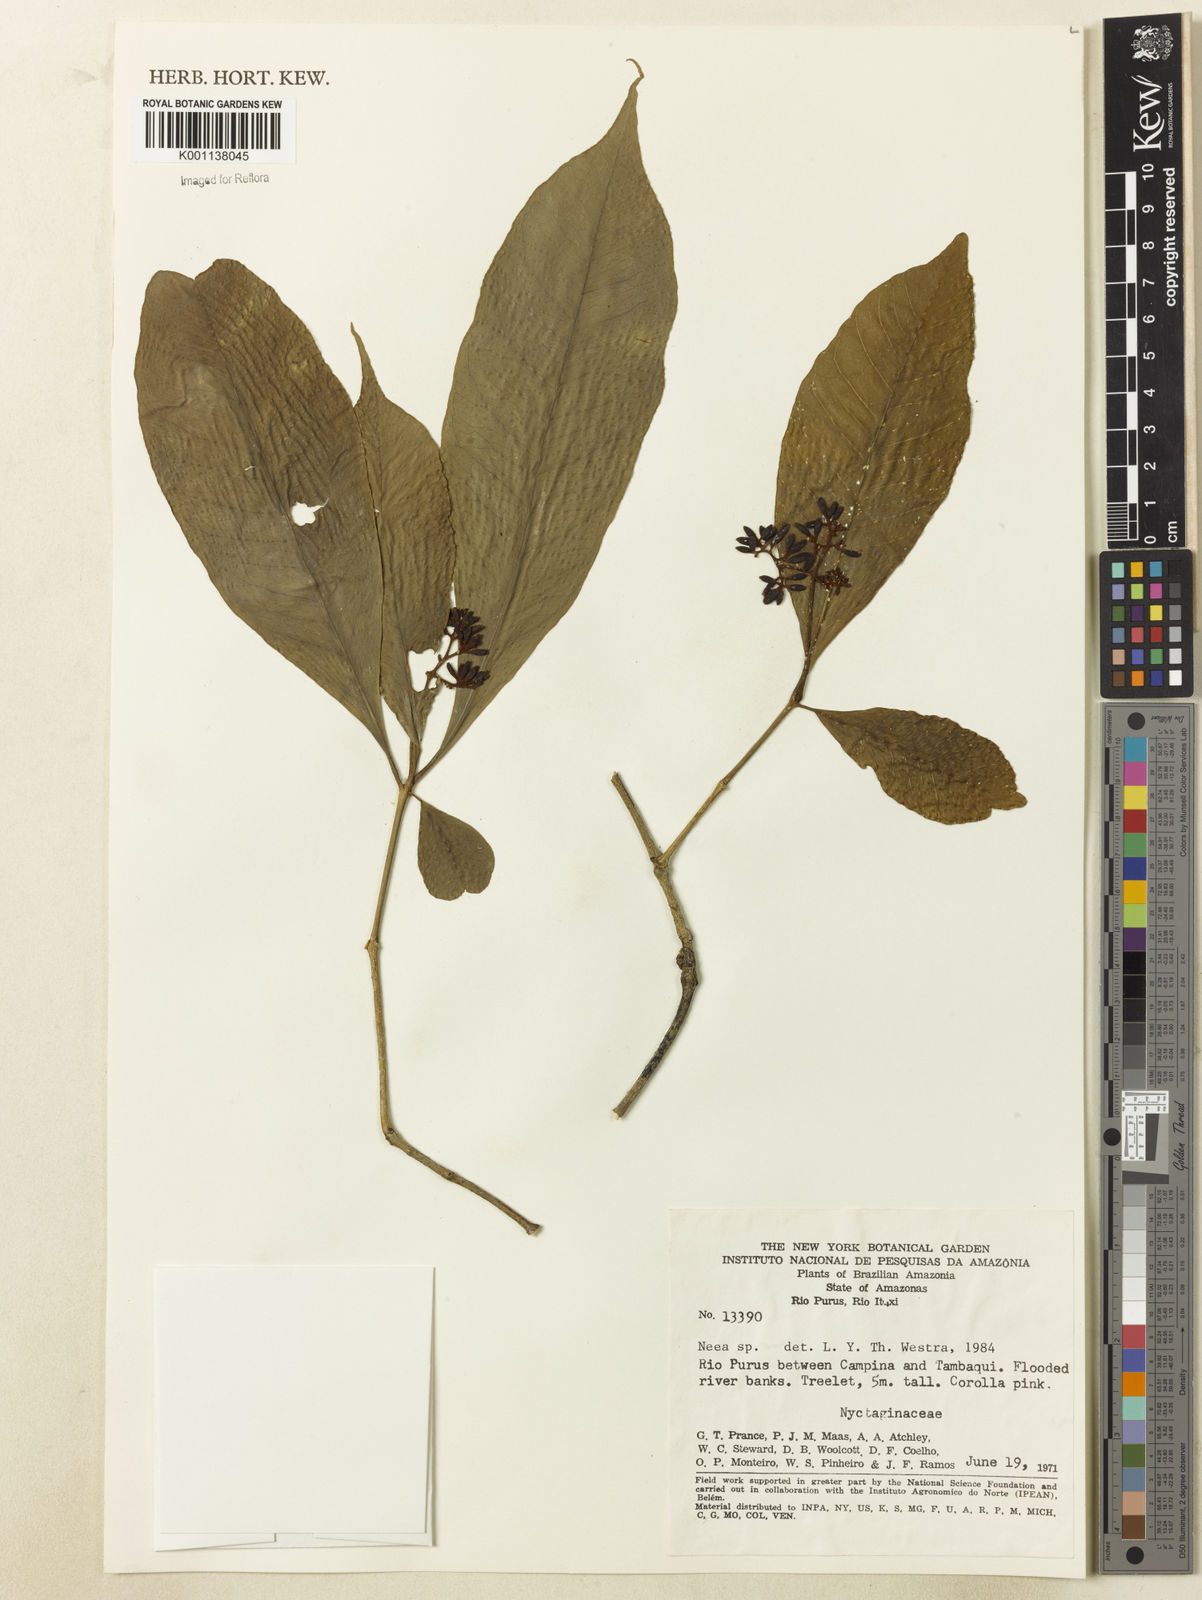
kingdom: Plantae
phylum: Tracheophyta
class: Magnoliopsida
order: Caryophyllales
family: Nyctaginaceae
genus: Neea
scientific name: Neea
